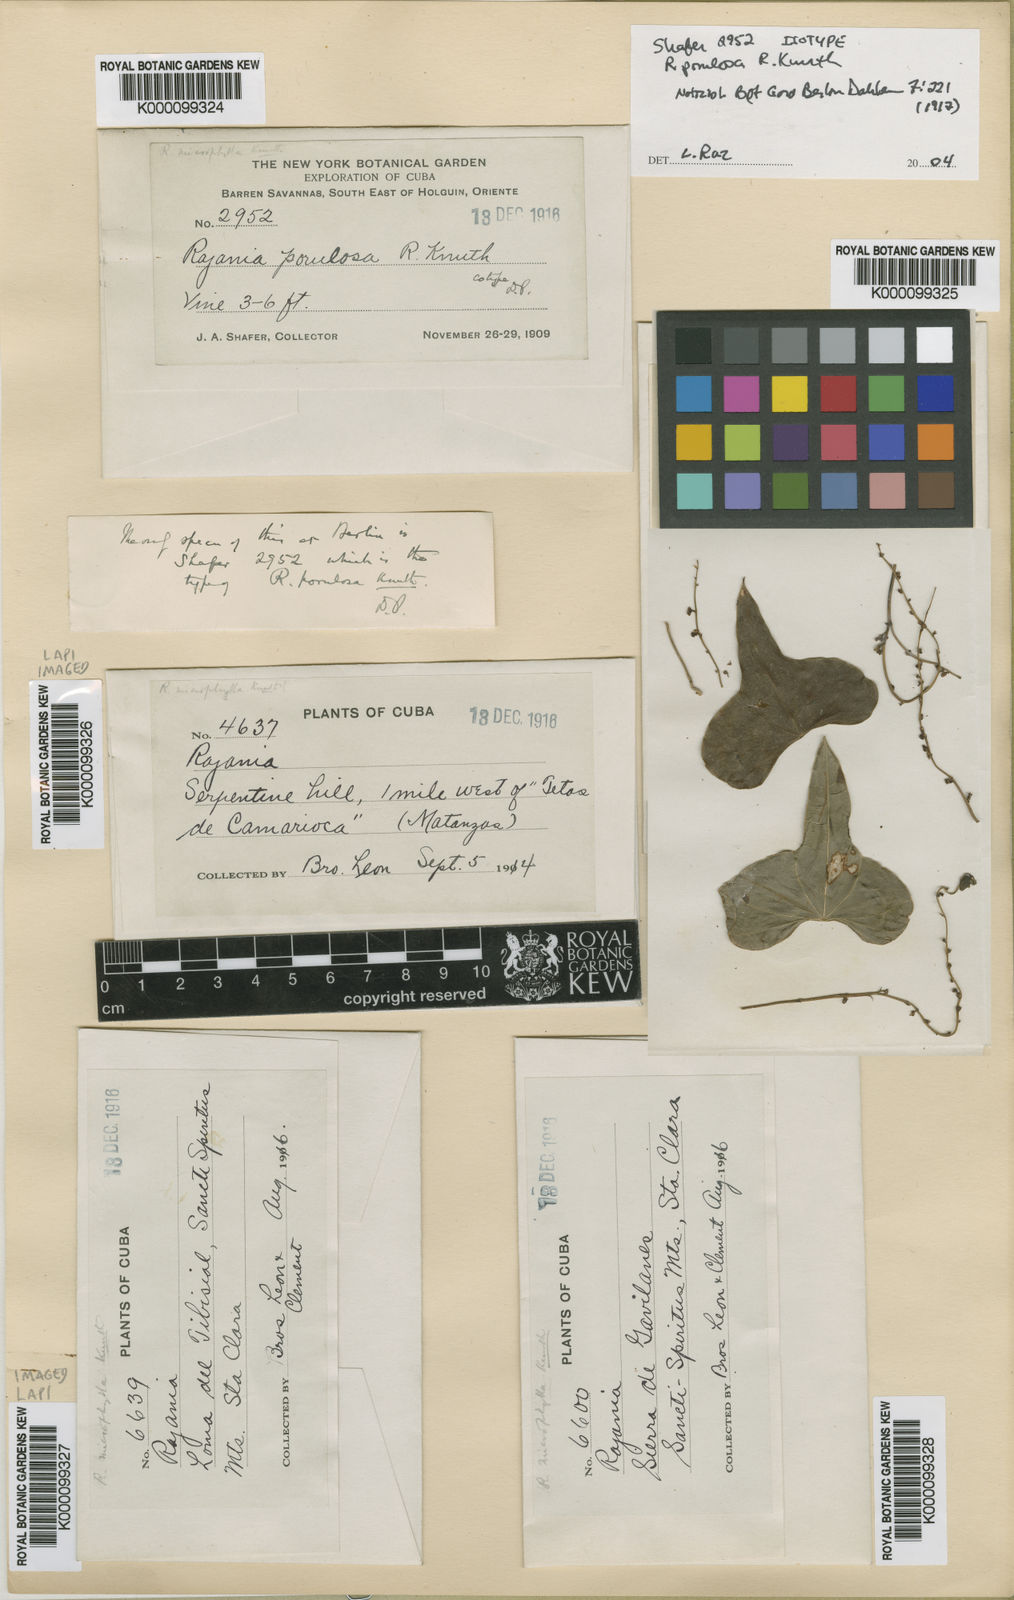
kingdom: Plantae
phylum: Tracheophyta
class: Liliopsida
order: Dioscoreales
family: Dioscoreaceae
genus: Dioscorea
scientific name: Dioscorea porulosa
